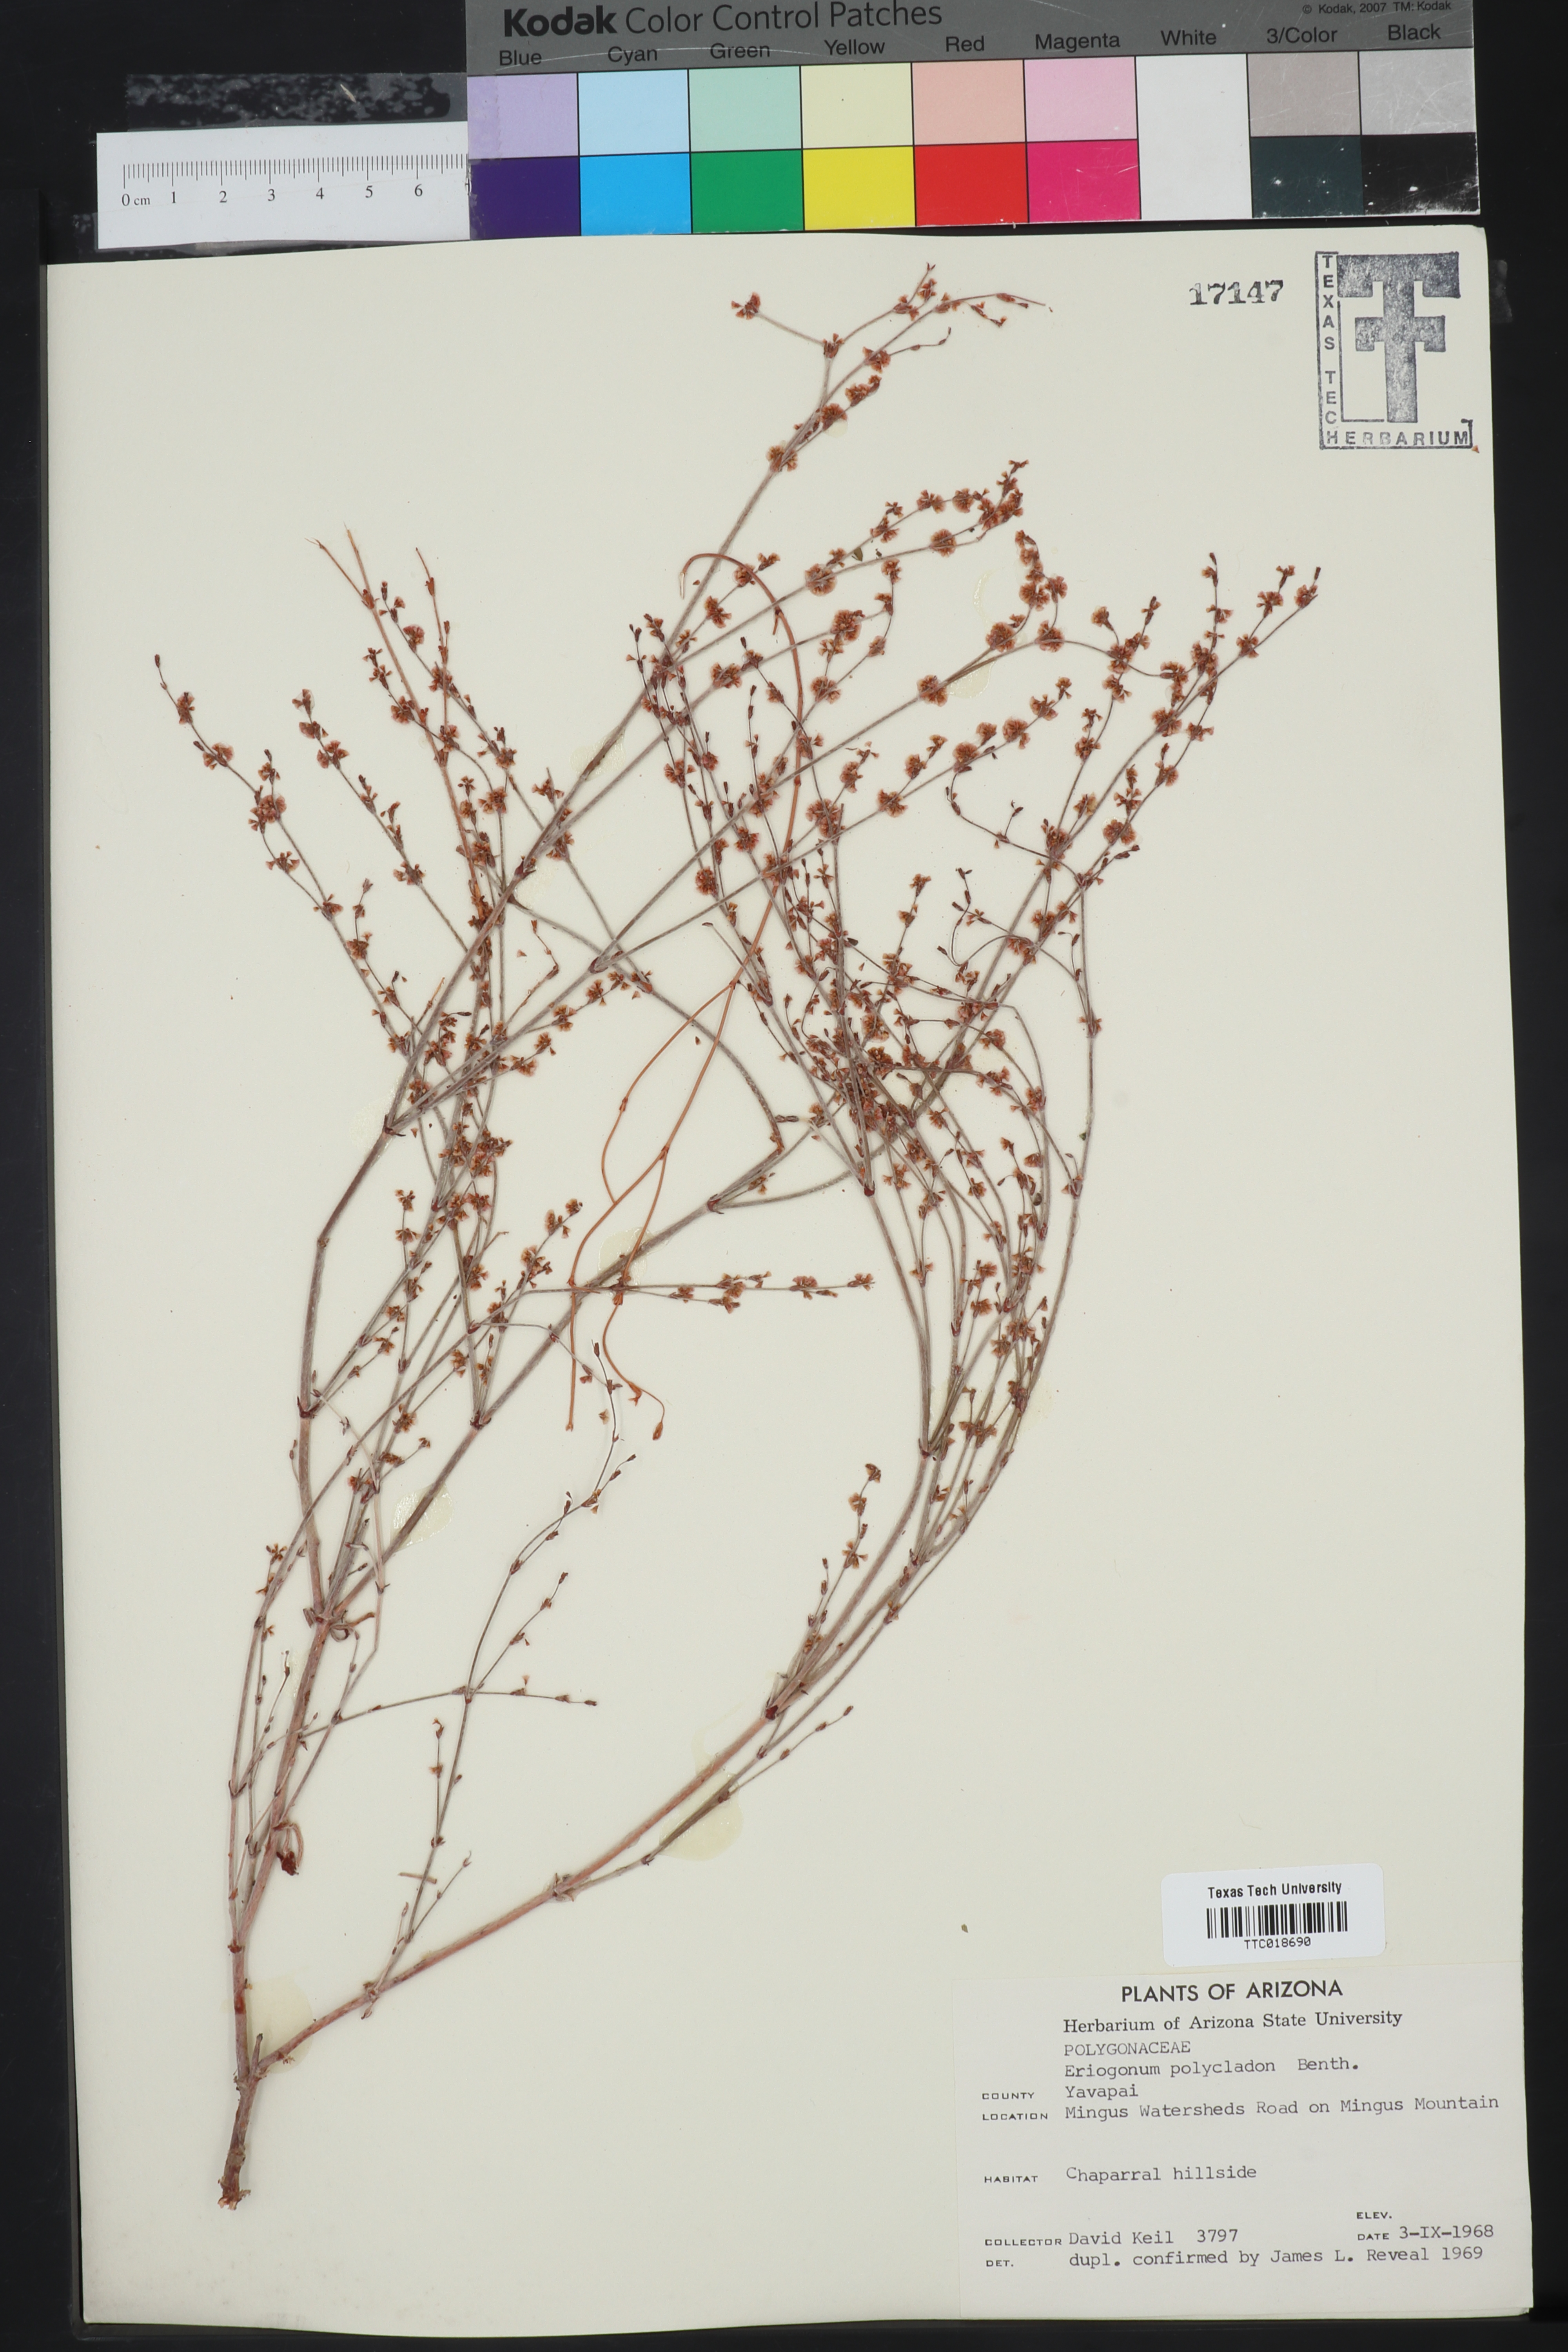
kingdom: Plantae
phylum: Tracheophyta
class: Magnoliopsida
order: Caryophyllales
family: Polygonaceae
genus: Eriogonum
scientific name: Eriogonum polycladon
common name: Sorrel wild buckwheat
